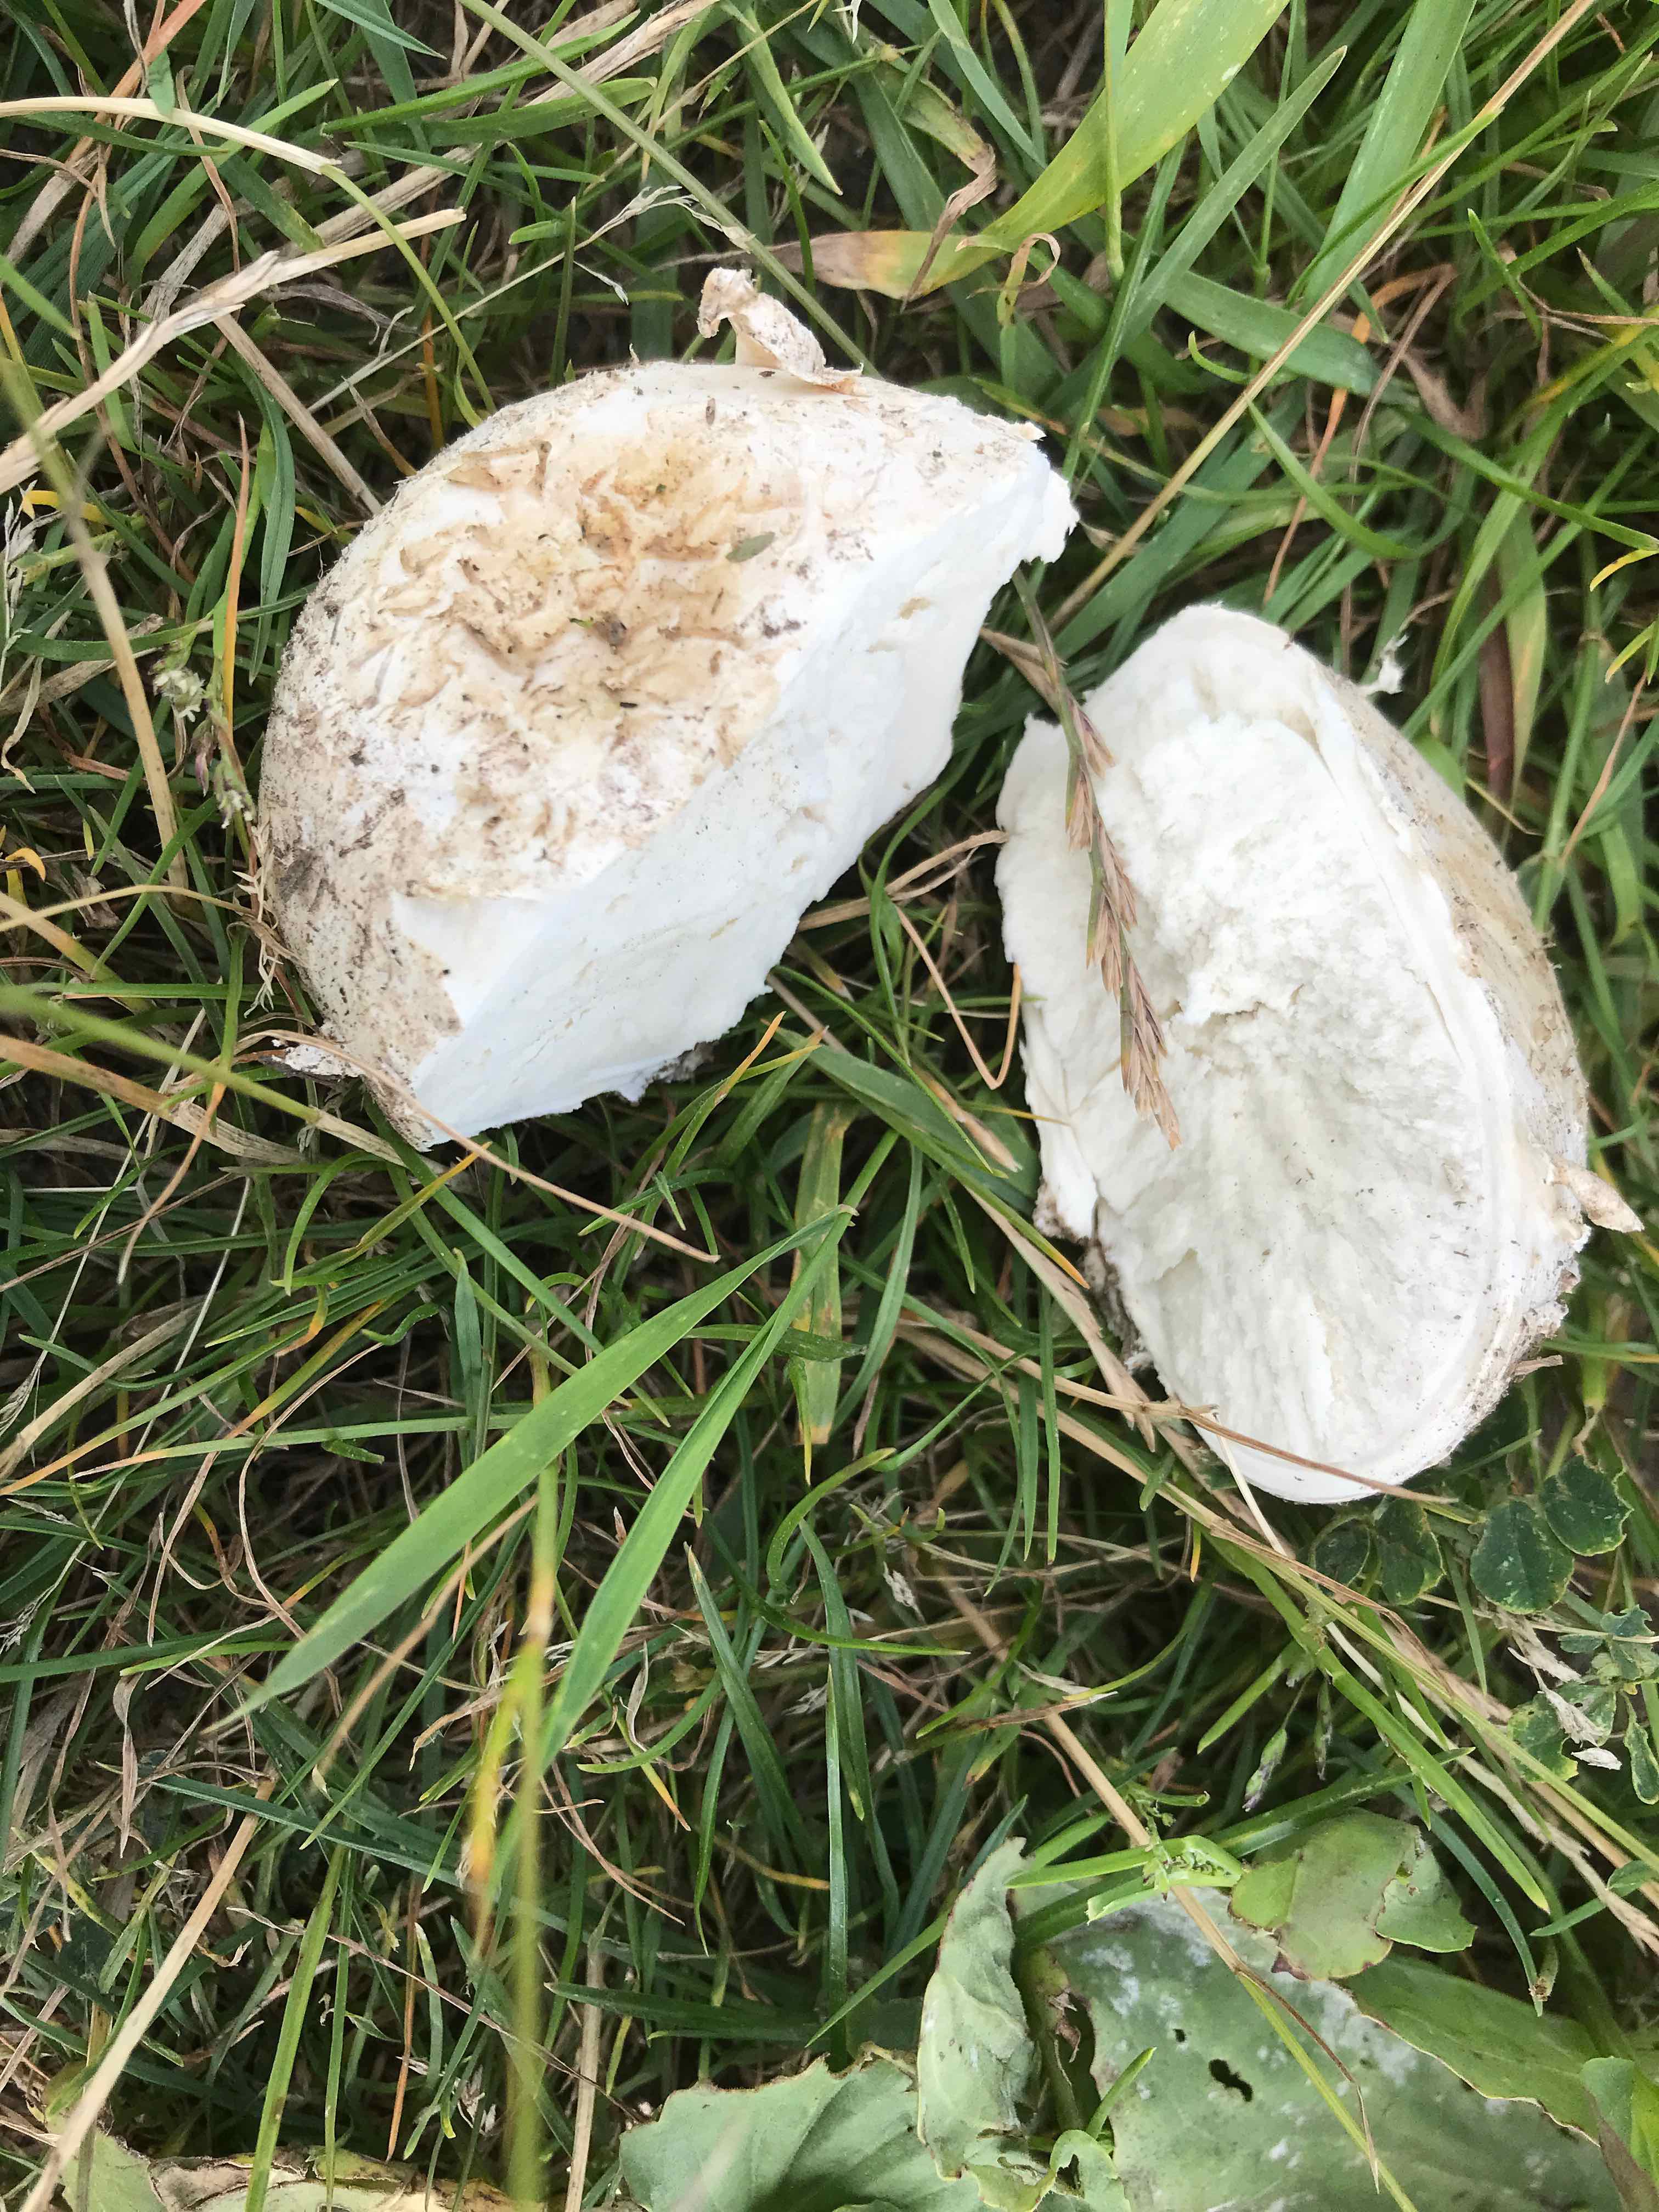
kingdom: Fungi
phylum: Basidiomycota
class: Agaricomycetes
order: Agaricales
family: Lycoperdaceae
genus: Bovistella
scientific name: Bovistella utriformis
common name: skællet støvbold
